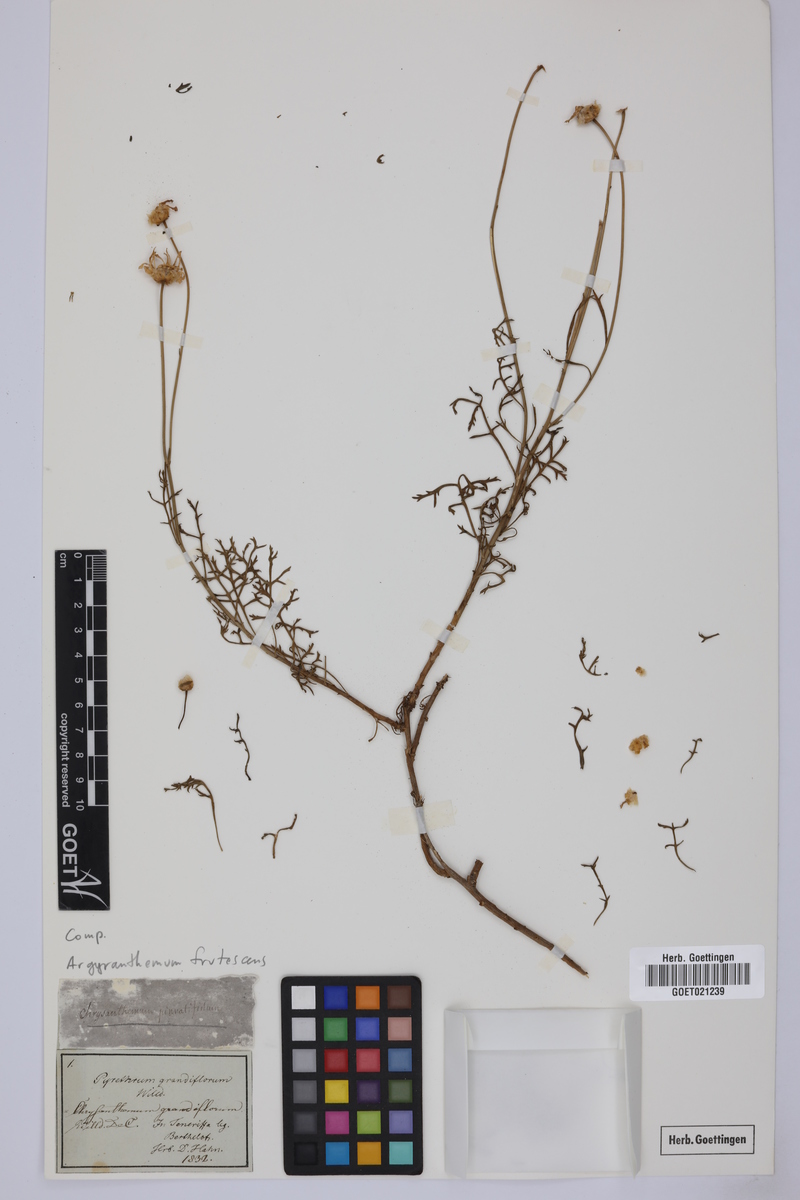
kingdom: Plantae
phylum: Tracheophyta
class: Magnoliopsida
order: Asterales
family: Asteraceae
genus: Argyranthemum
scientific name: Argyranthemum frutescens
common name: Paris daisy
